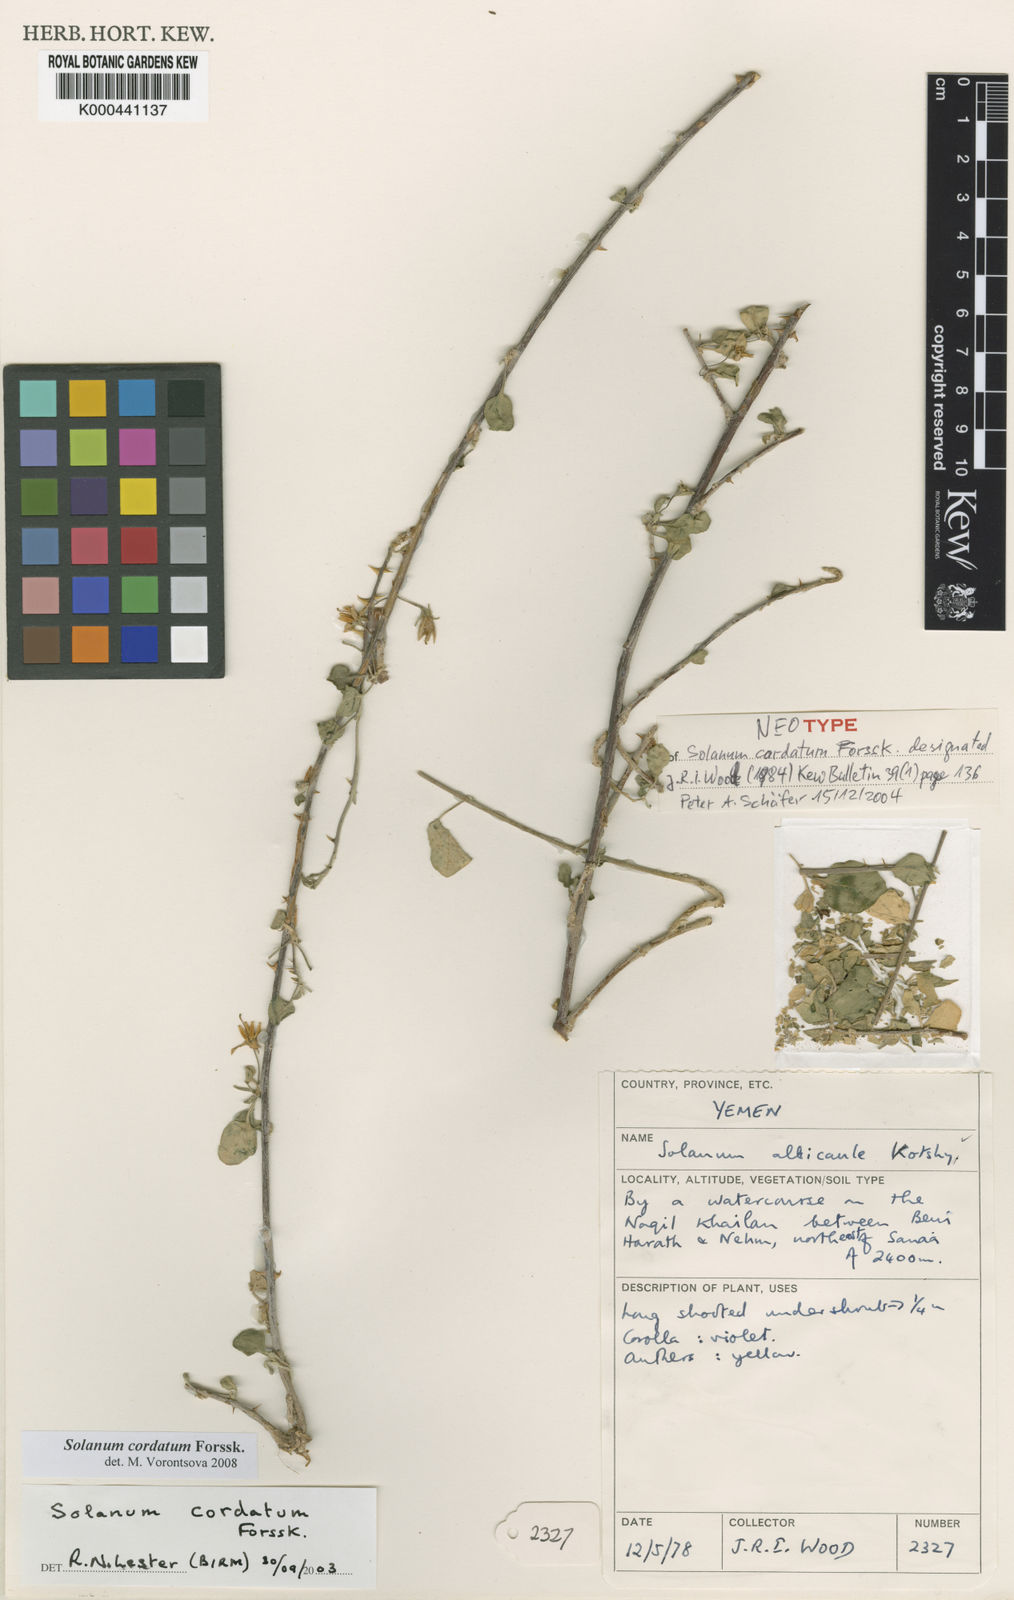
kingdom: Plantae
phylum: Tracheophyta
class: Magnoliopsida
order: Solanales
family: Solanaceae
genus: Solanum
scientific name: Solanum cordatum
